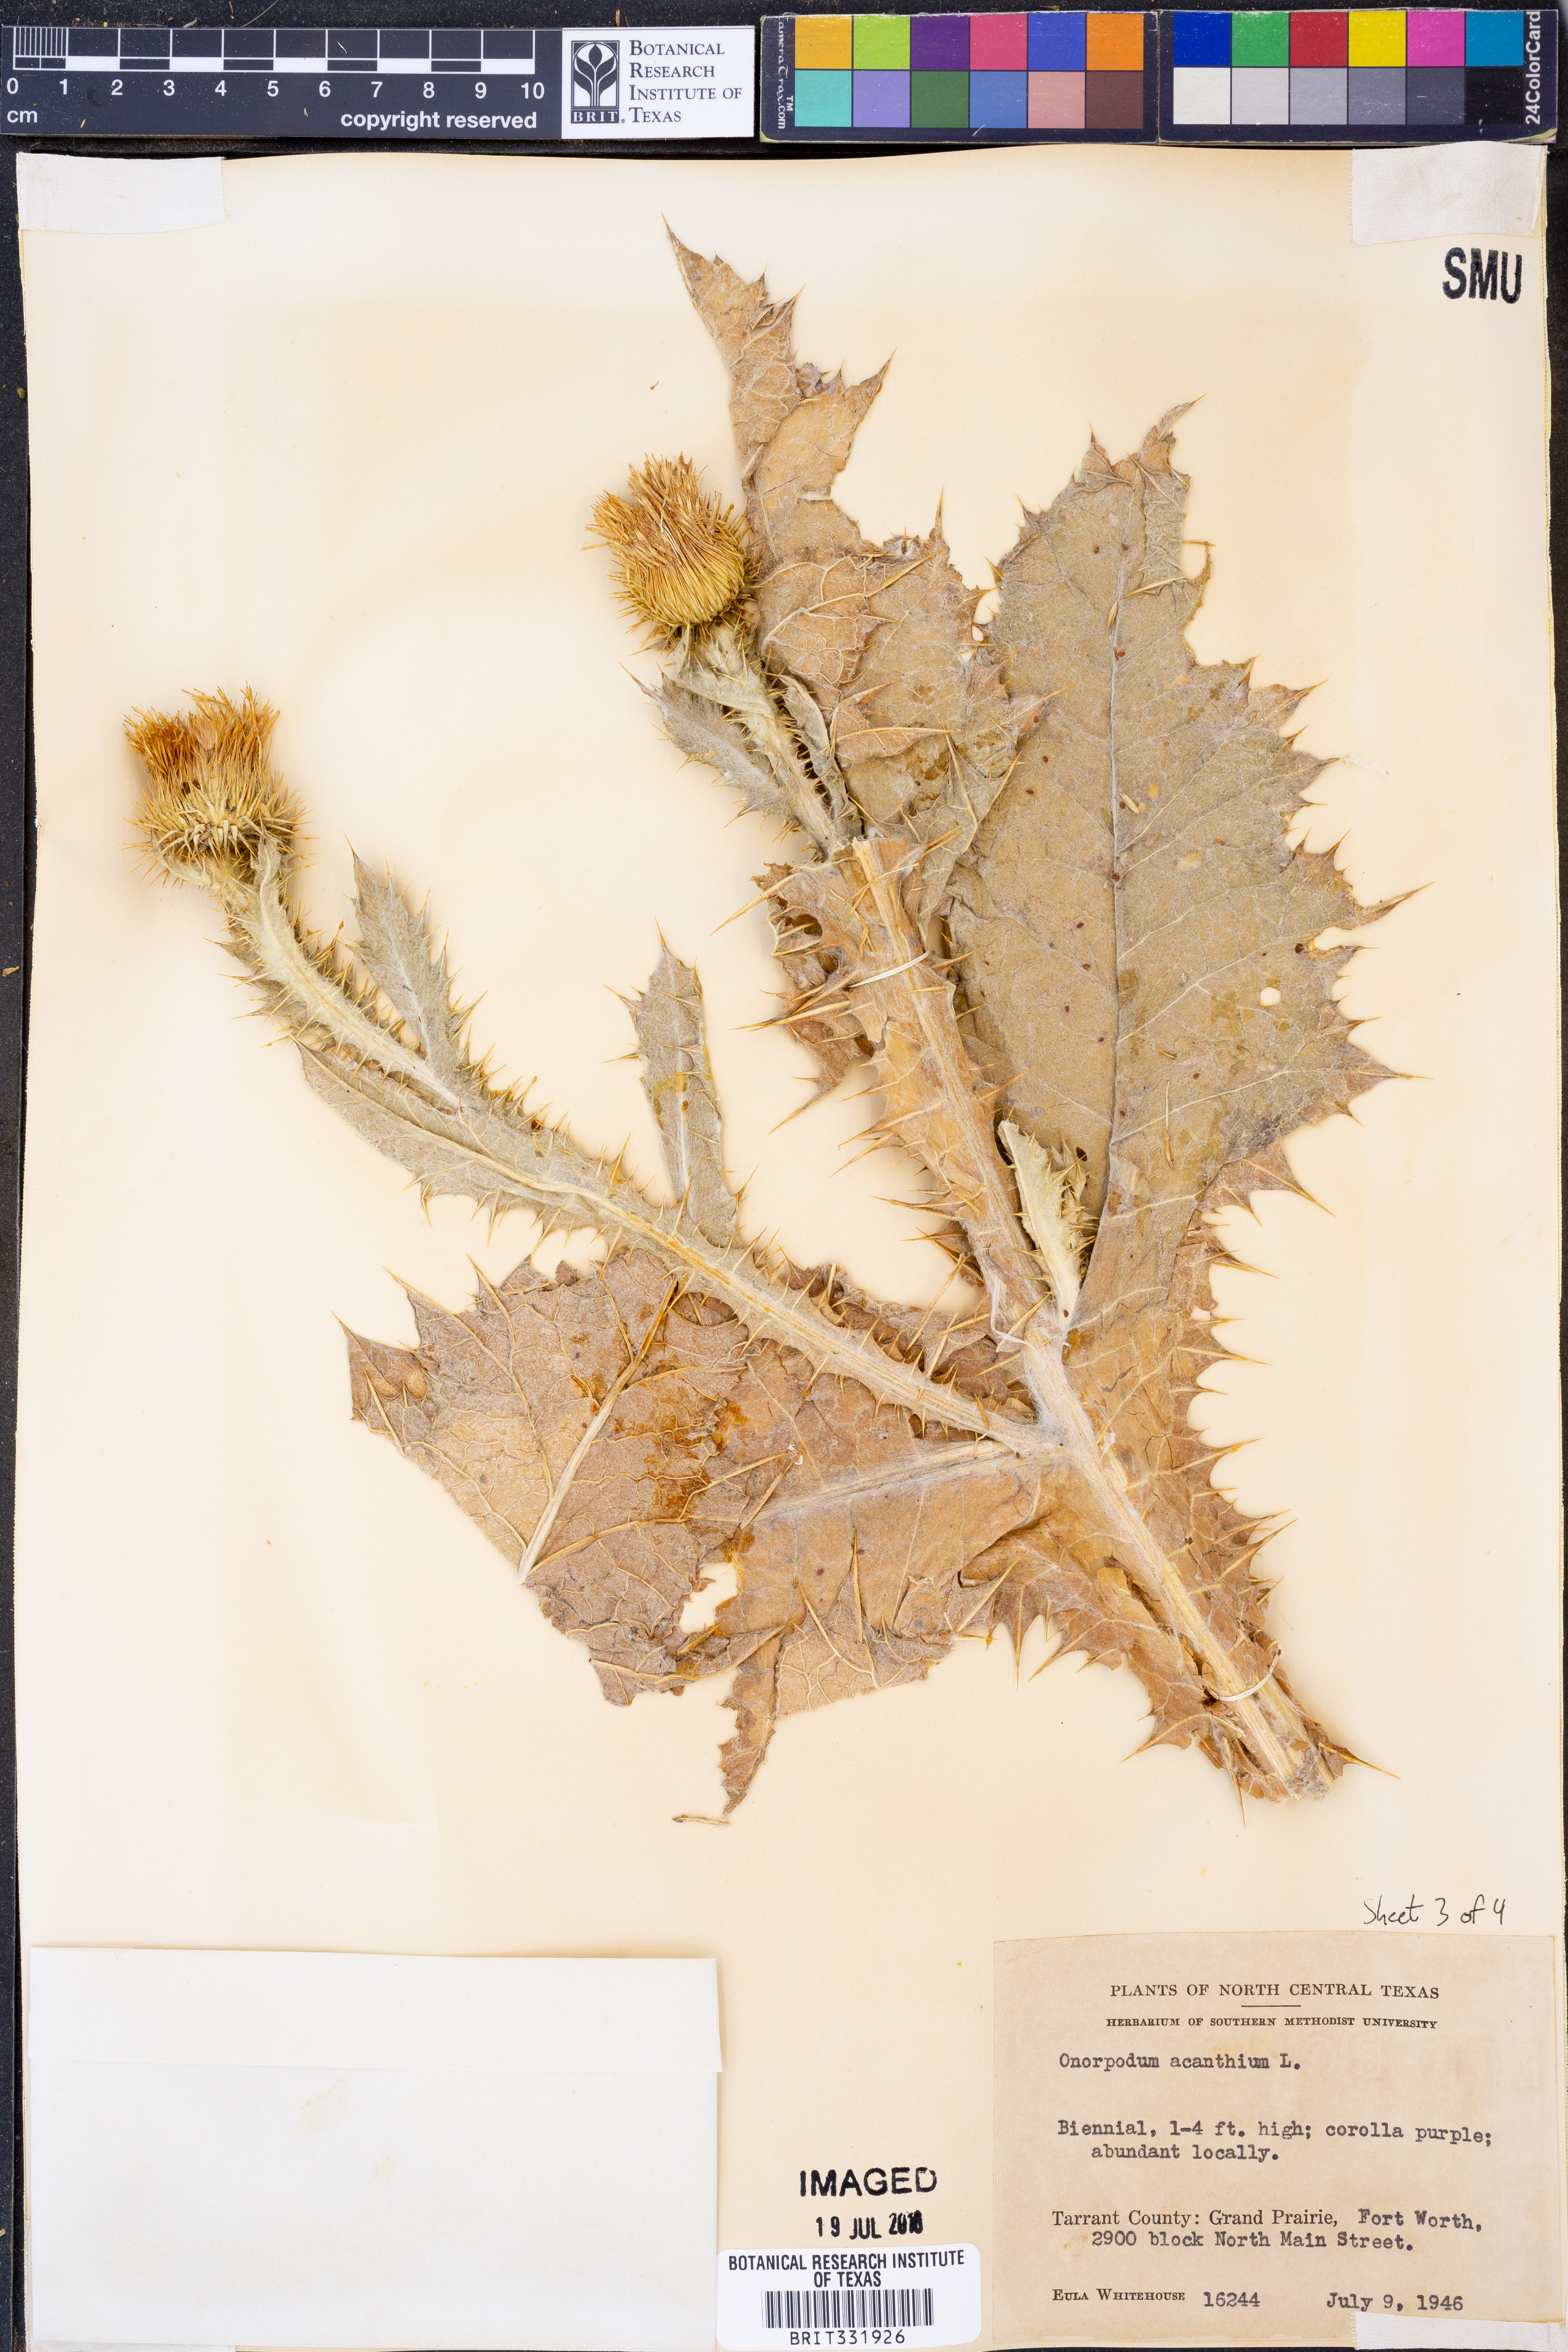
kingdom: Plantae
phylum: Tracheophyta
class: Magnoliopsida
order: Asterales
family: Asteraceae
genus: Onopordum
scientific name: Onopordum acanthium
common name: Scotch thistle
